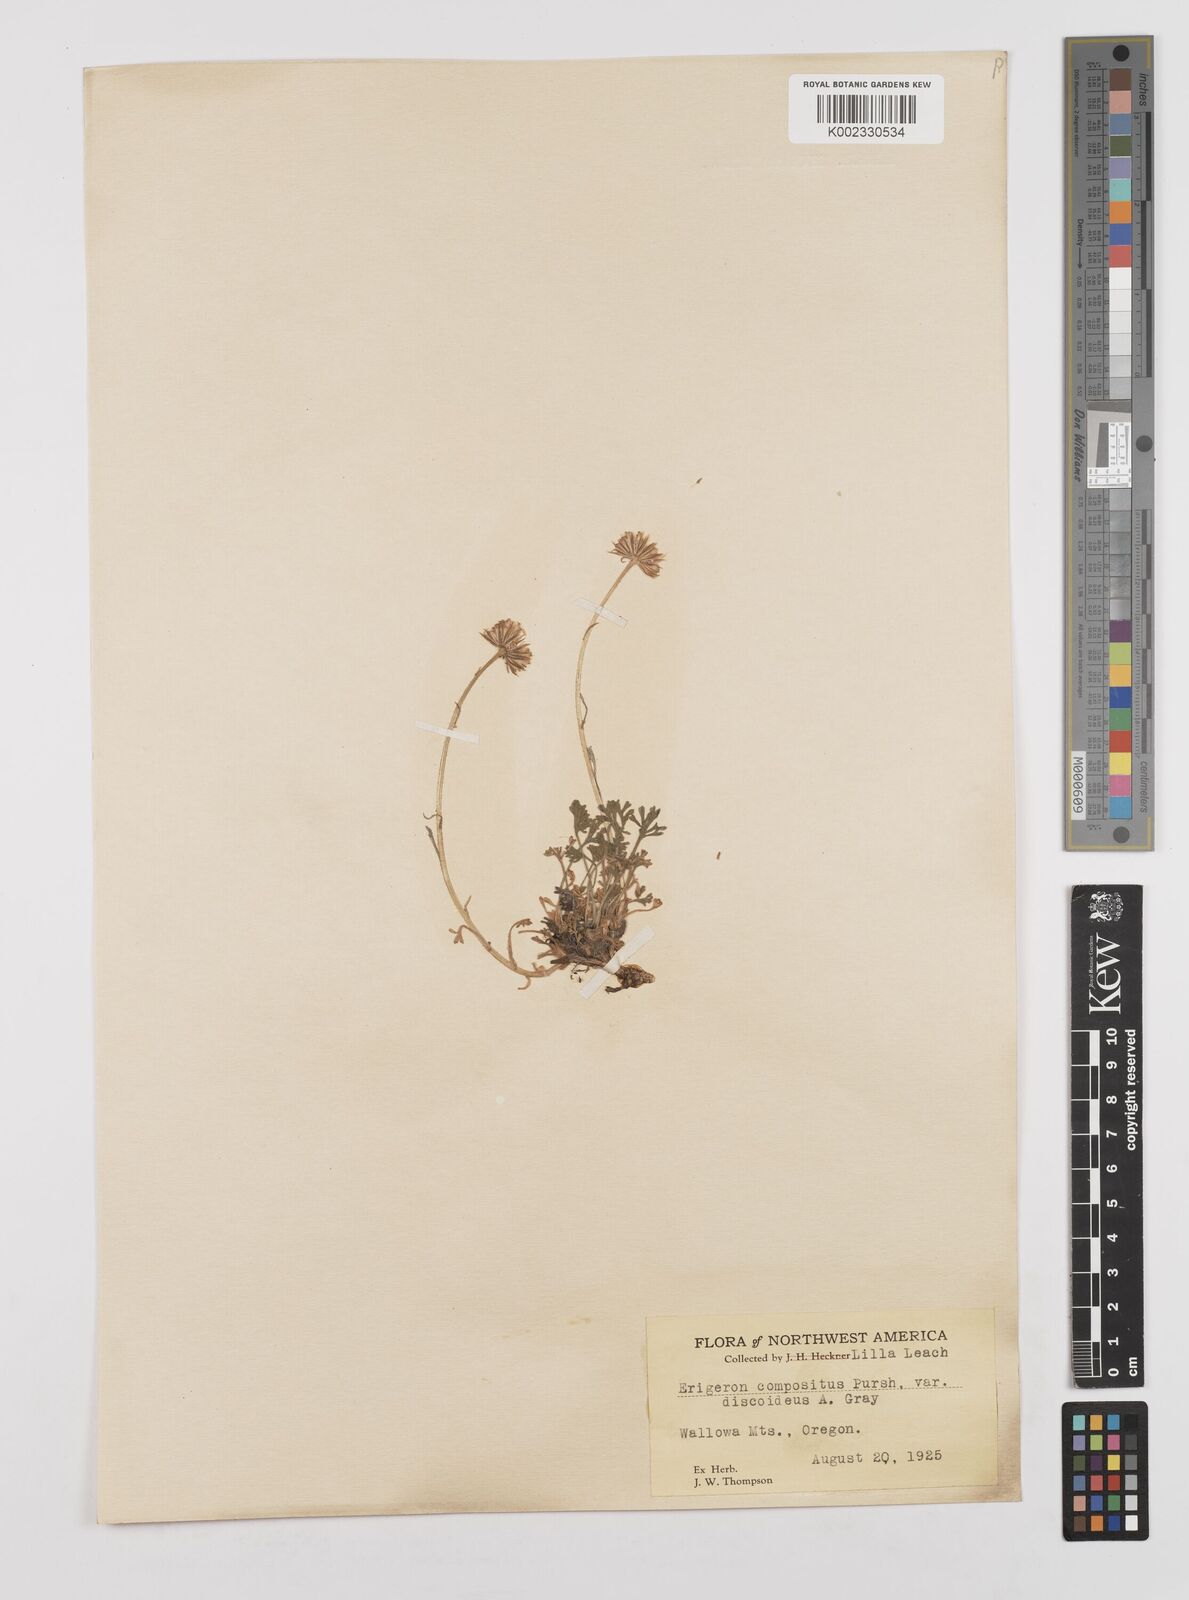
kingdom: Plantae
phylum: Tracheophyta
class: Magnoliopsida
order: Asterales
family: Asteraceae
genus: Erigeron
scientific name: Erigeron compositus
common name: Dwarf mountain fleabane
